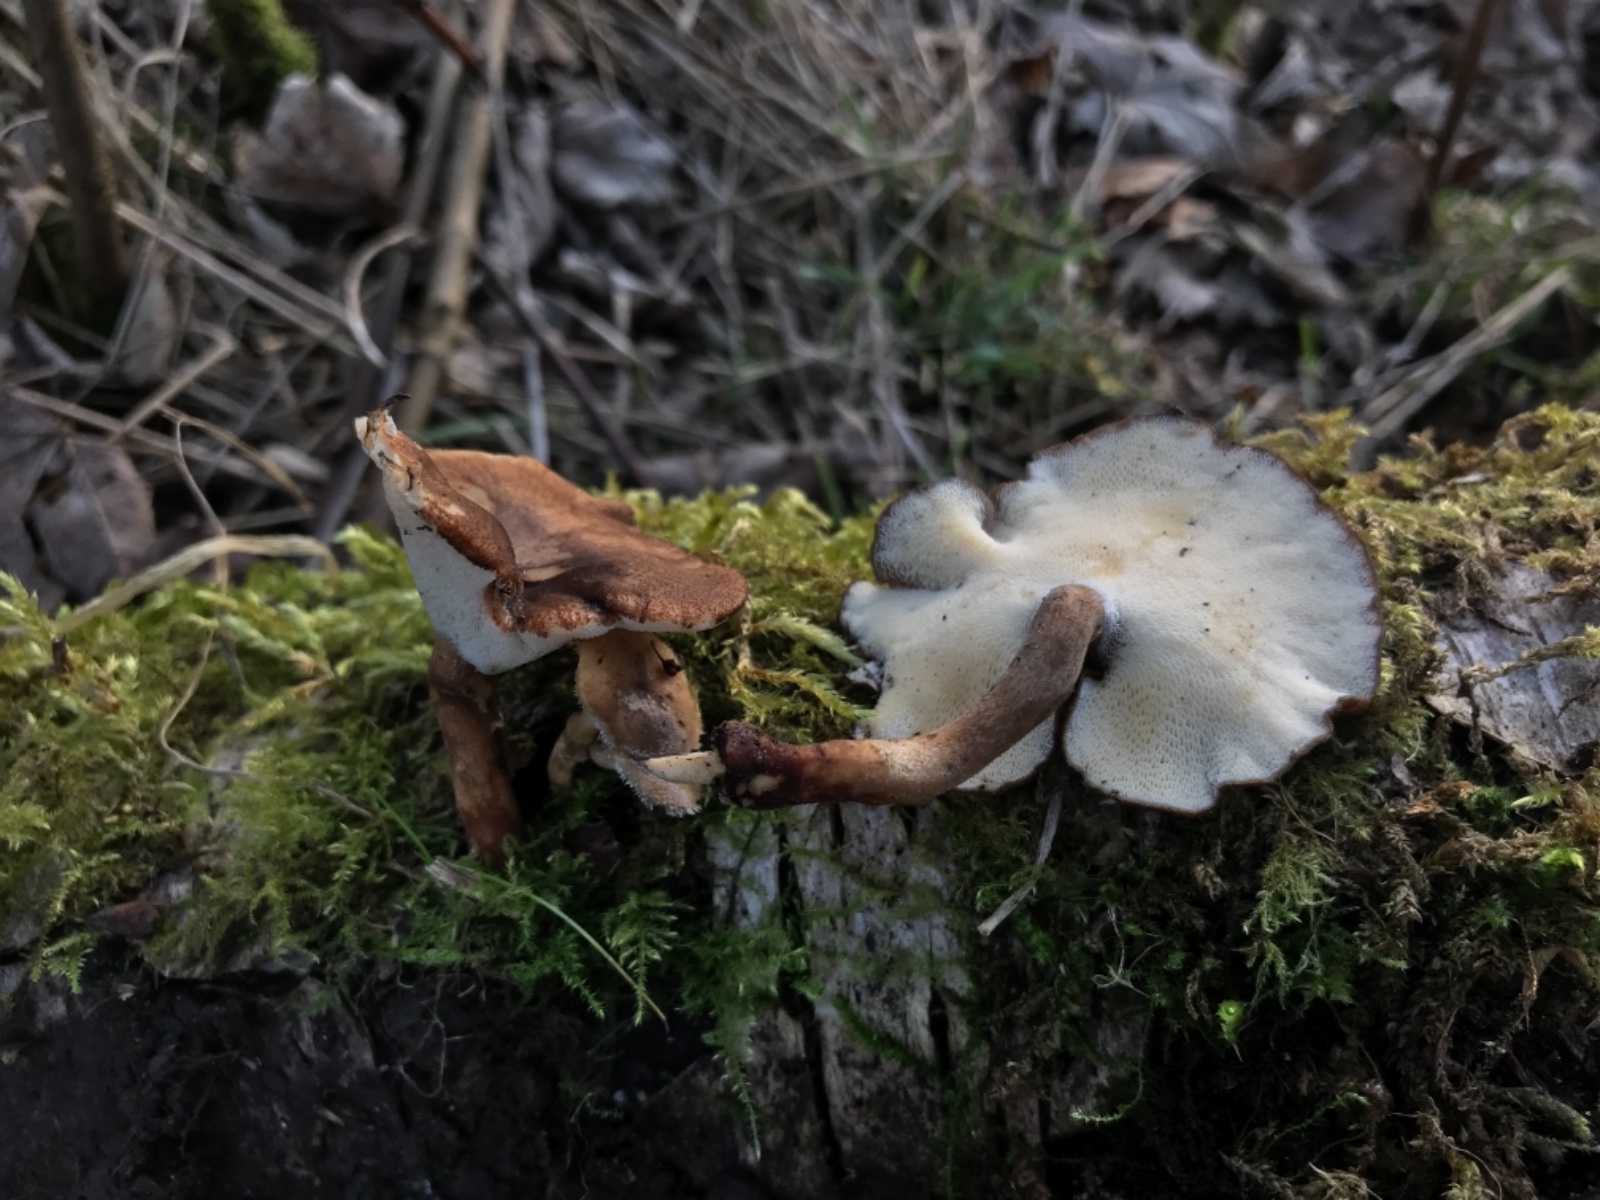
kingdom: Fungi
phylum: Basidiomycota
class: Agaricomycetes
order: Polyporales
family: Polyporaceae
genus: Lentinus
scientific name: Lentinus brumalis
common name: vinter-stilkporesvamp
